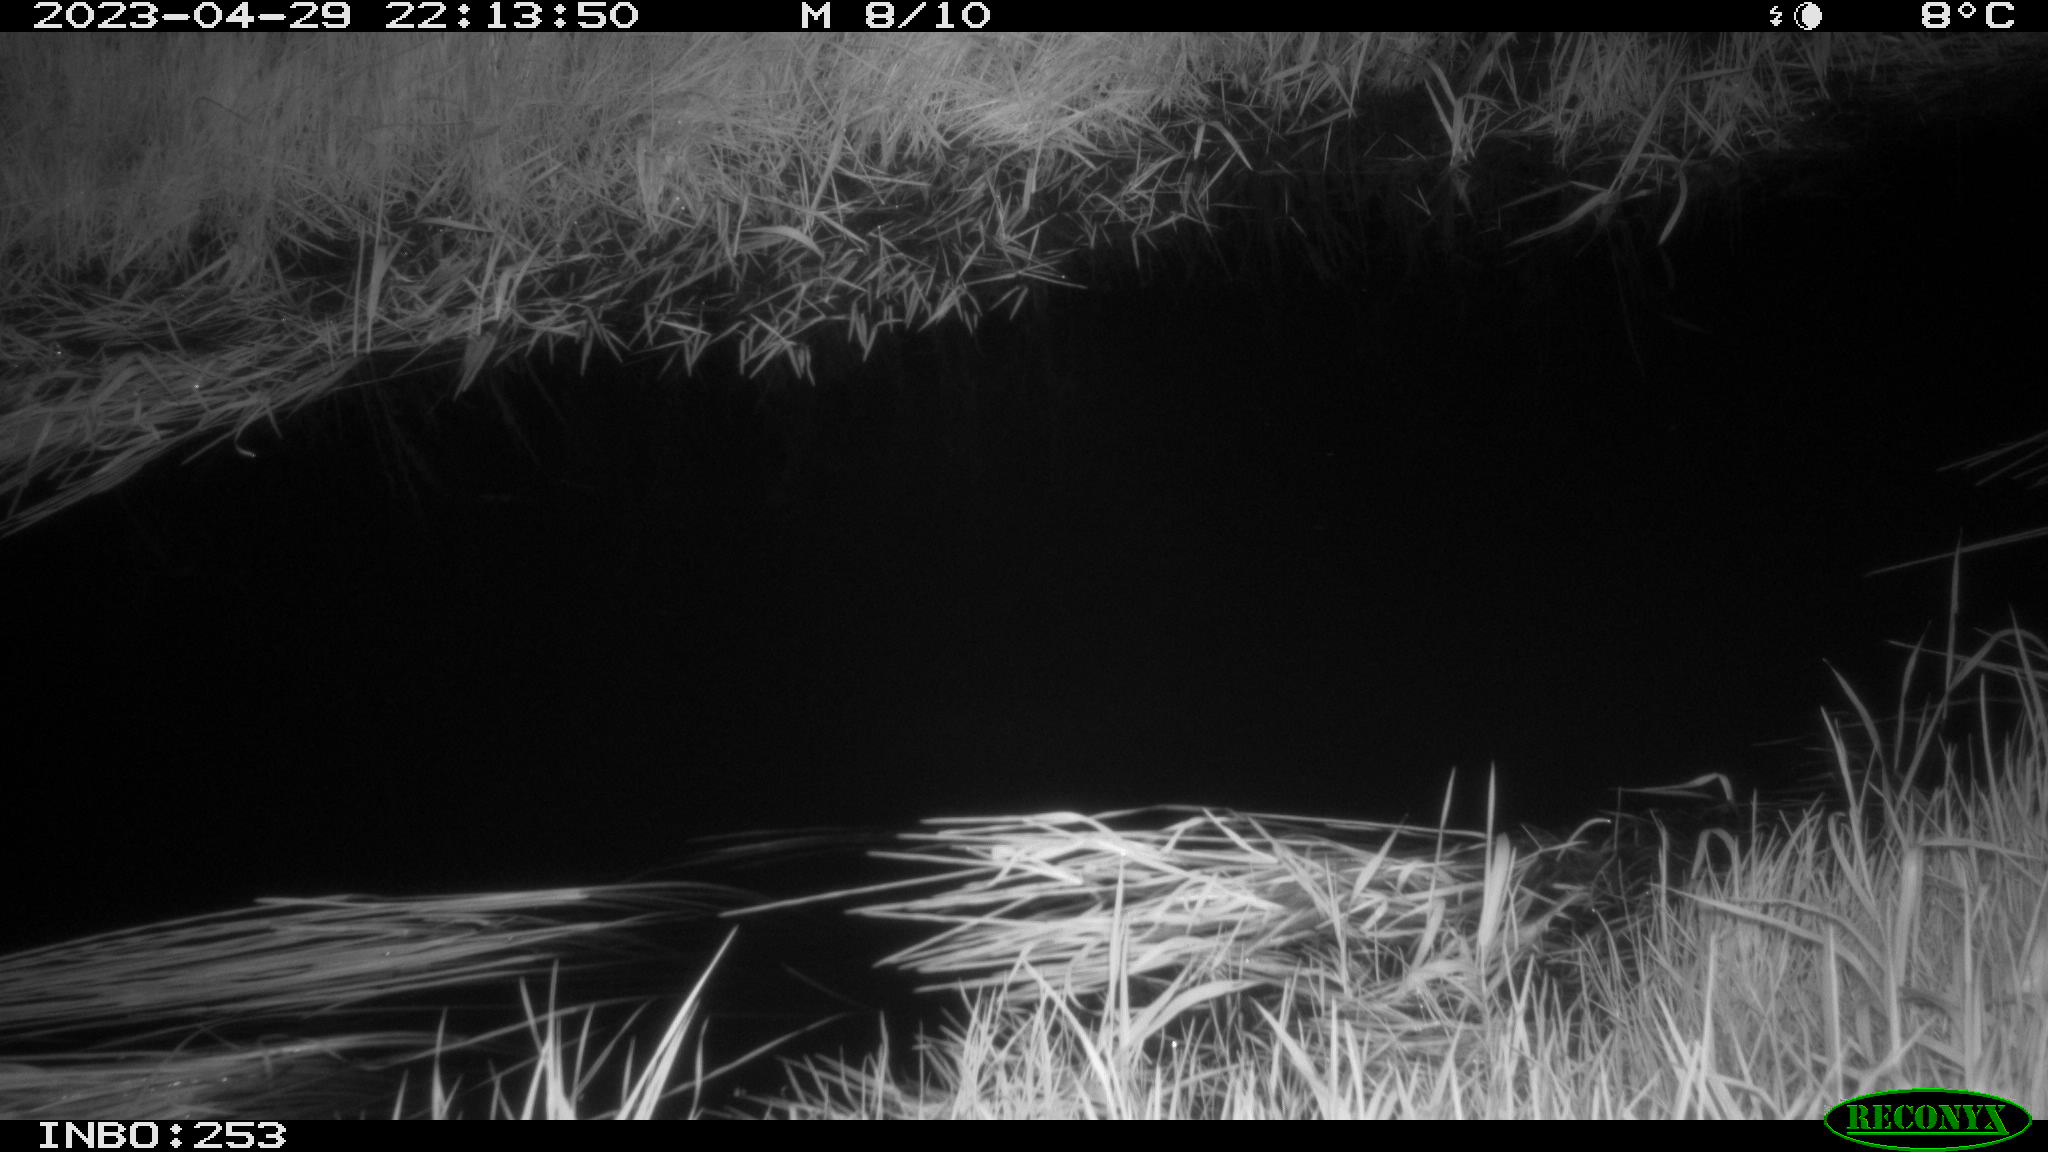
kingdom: Animalia
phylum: Chordata
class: Aves
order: Anseriformes
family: Anatidae
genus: Anas
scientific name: Anas
